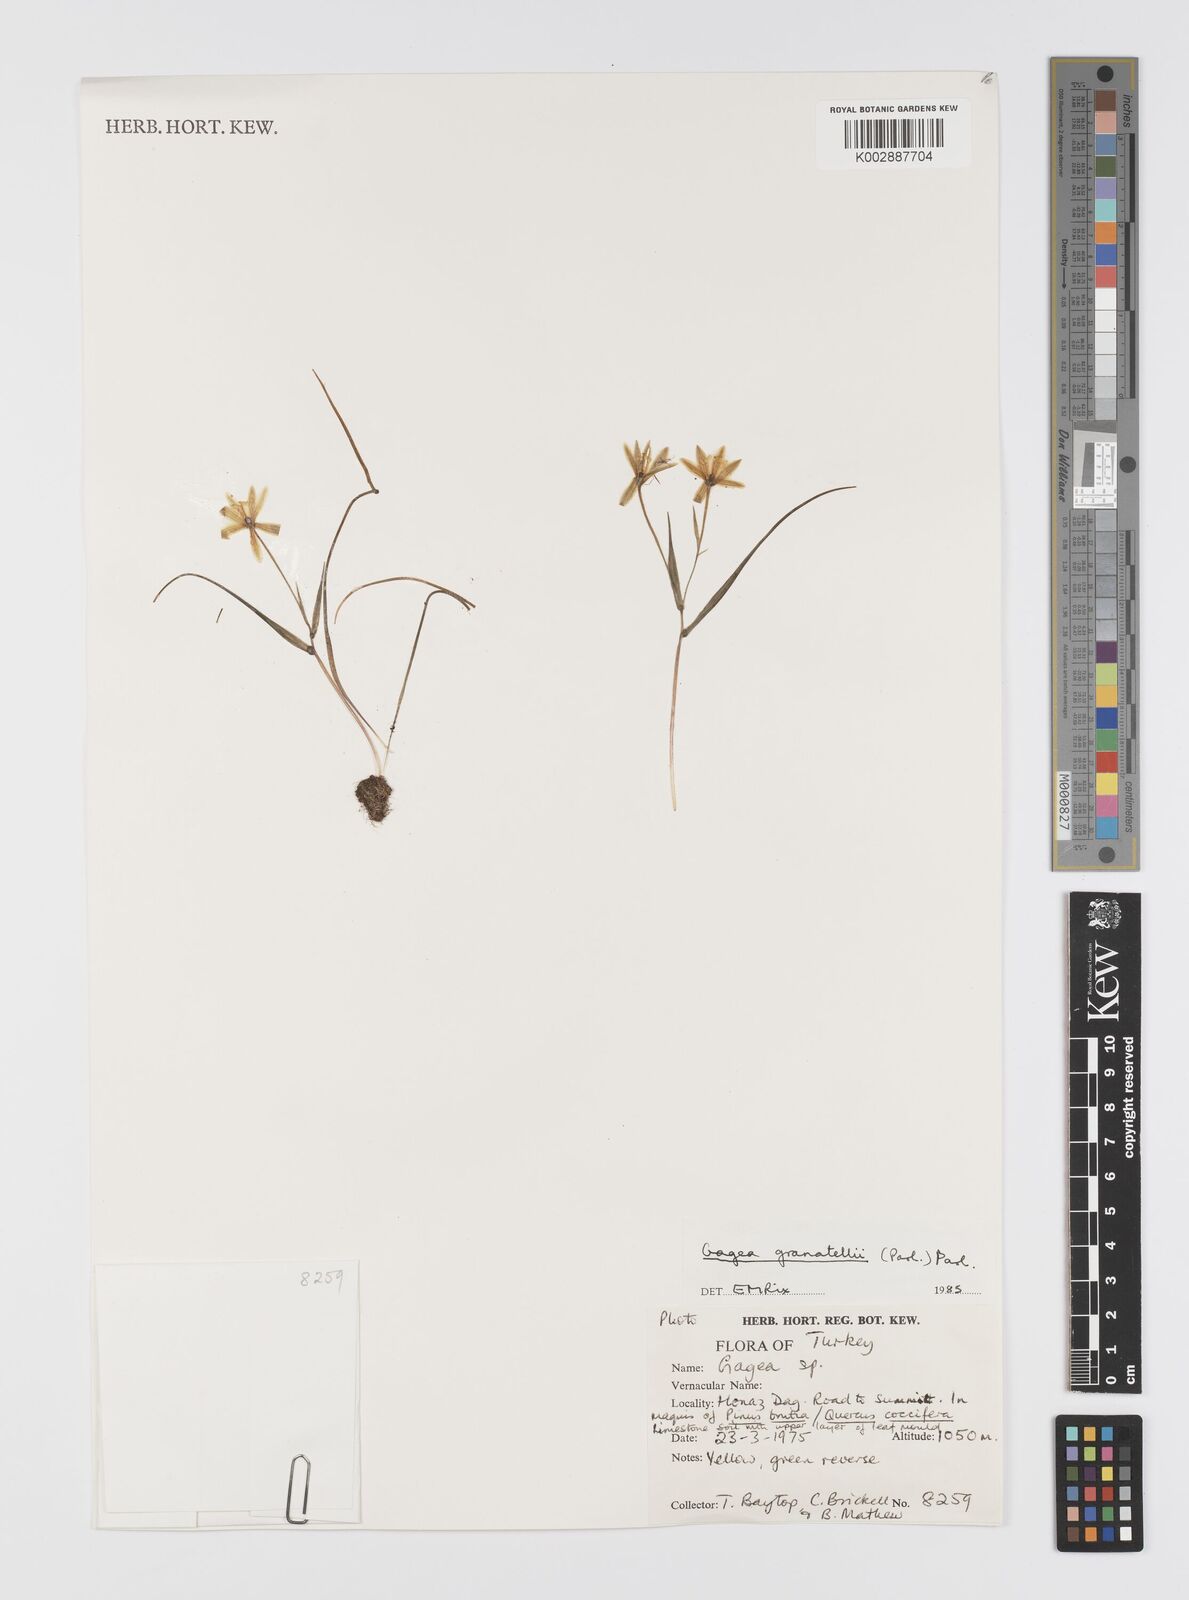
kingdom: Plantae
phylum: Tracheophyta
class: Liliopsida
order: Liliales
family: Liliaceae
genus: Gagea
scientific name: Gagea minima
